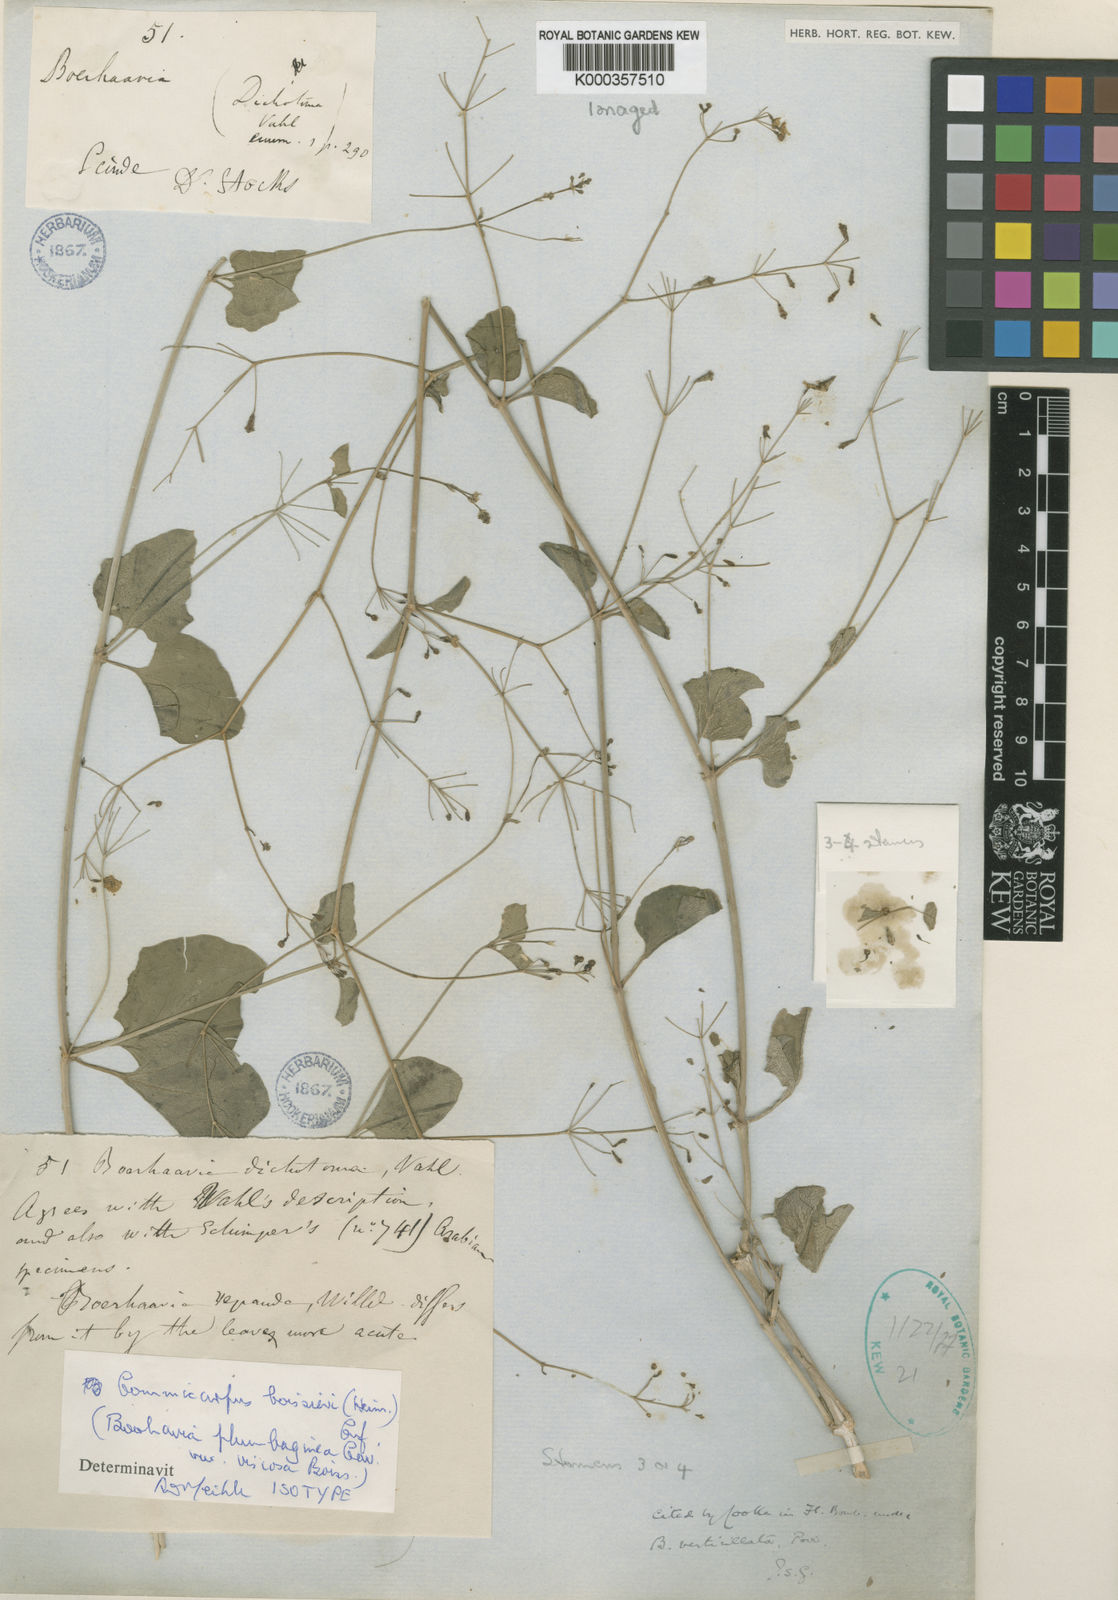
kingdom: Plantae
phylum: Tracheophyta
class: Magnoliopsida
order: Caryophyllales
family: Nyctaginaceae
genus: Commicarpus
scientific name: Commicarpus boissieri
